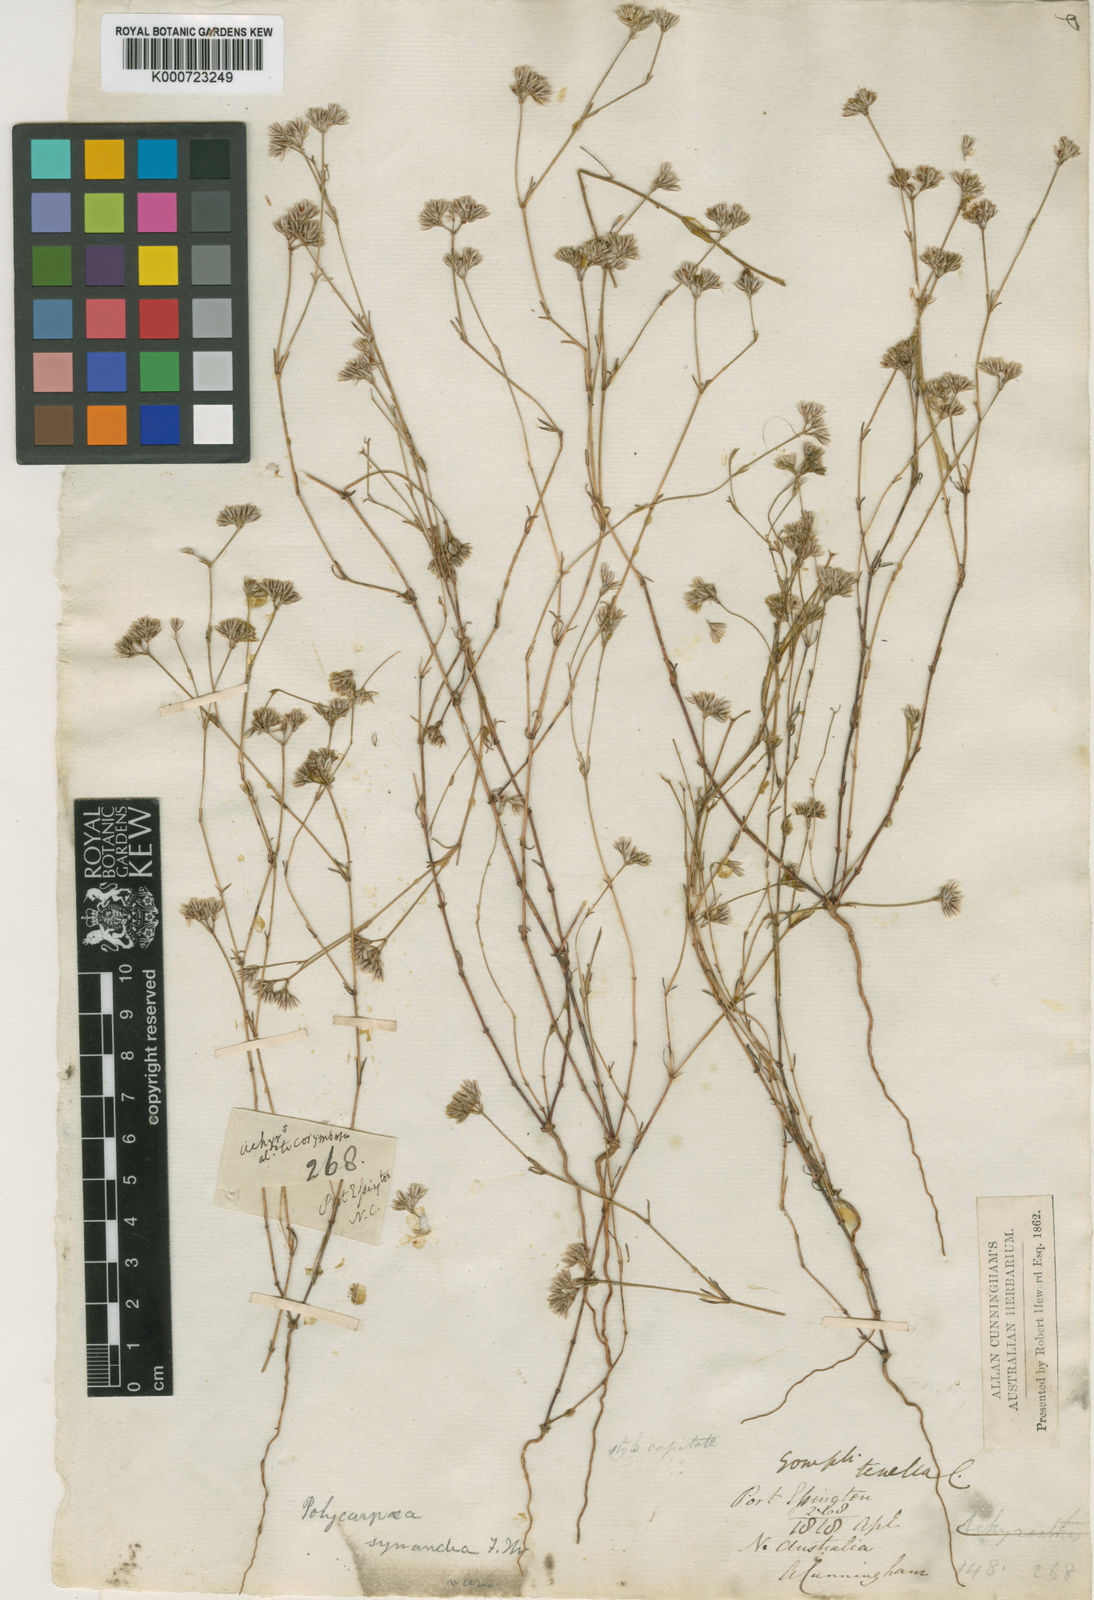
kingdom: Plantae
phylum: Tracheophyta
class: Magnoliopsida
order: Caryophyllales
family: Caryophyllaceae
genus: Polycarpaea
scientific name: Polycarpaea breviflora
